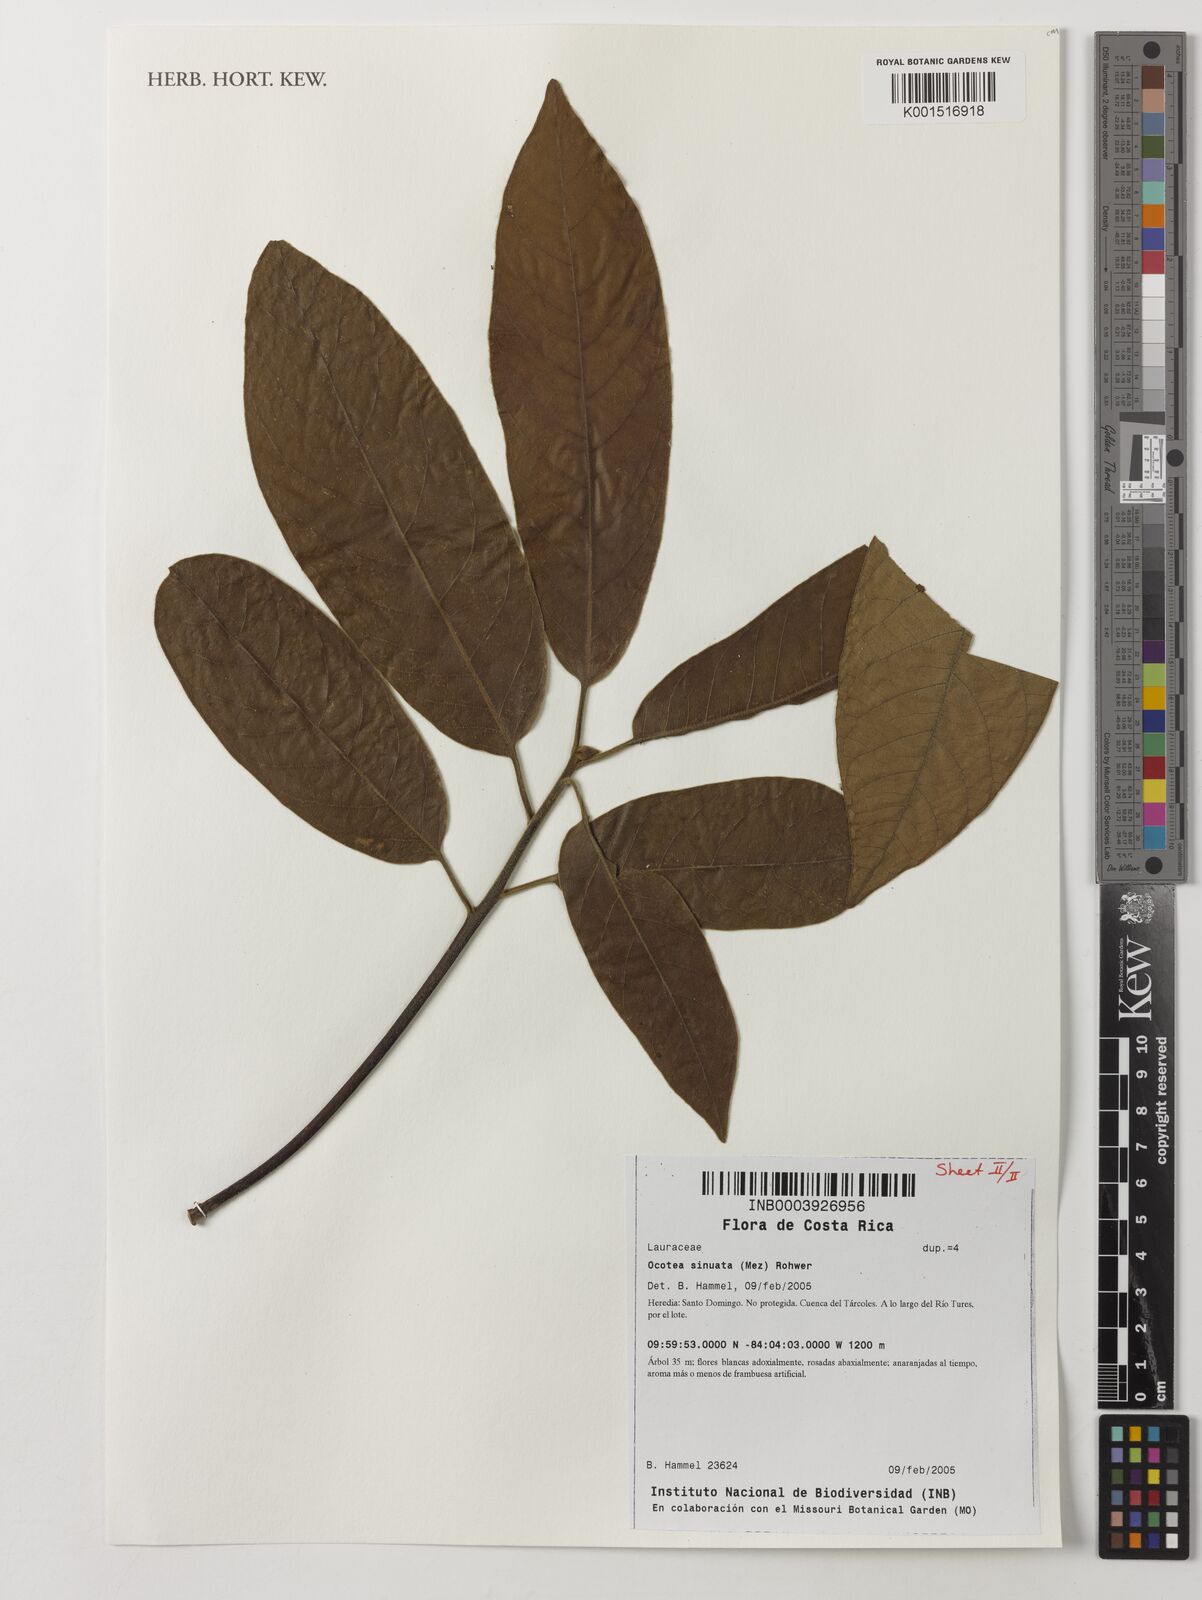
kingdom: Plantae
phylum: Tracheophyta
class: Magnoliopsida
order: Laurales
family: Lauraceae
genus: Ocotea
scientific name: Ocotea sinuata
